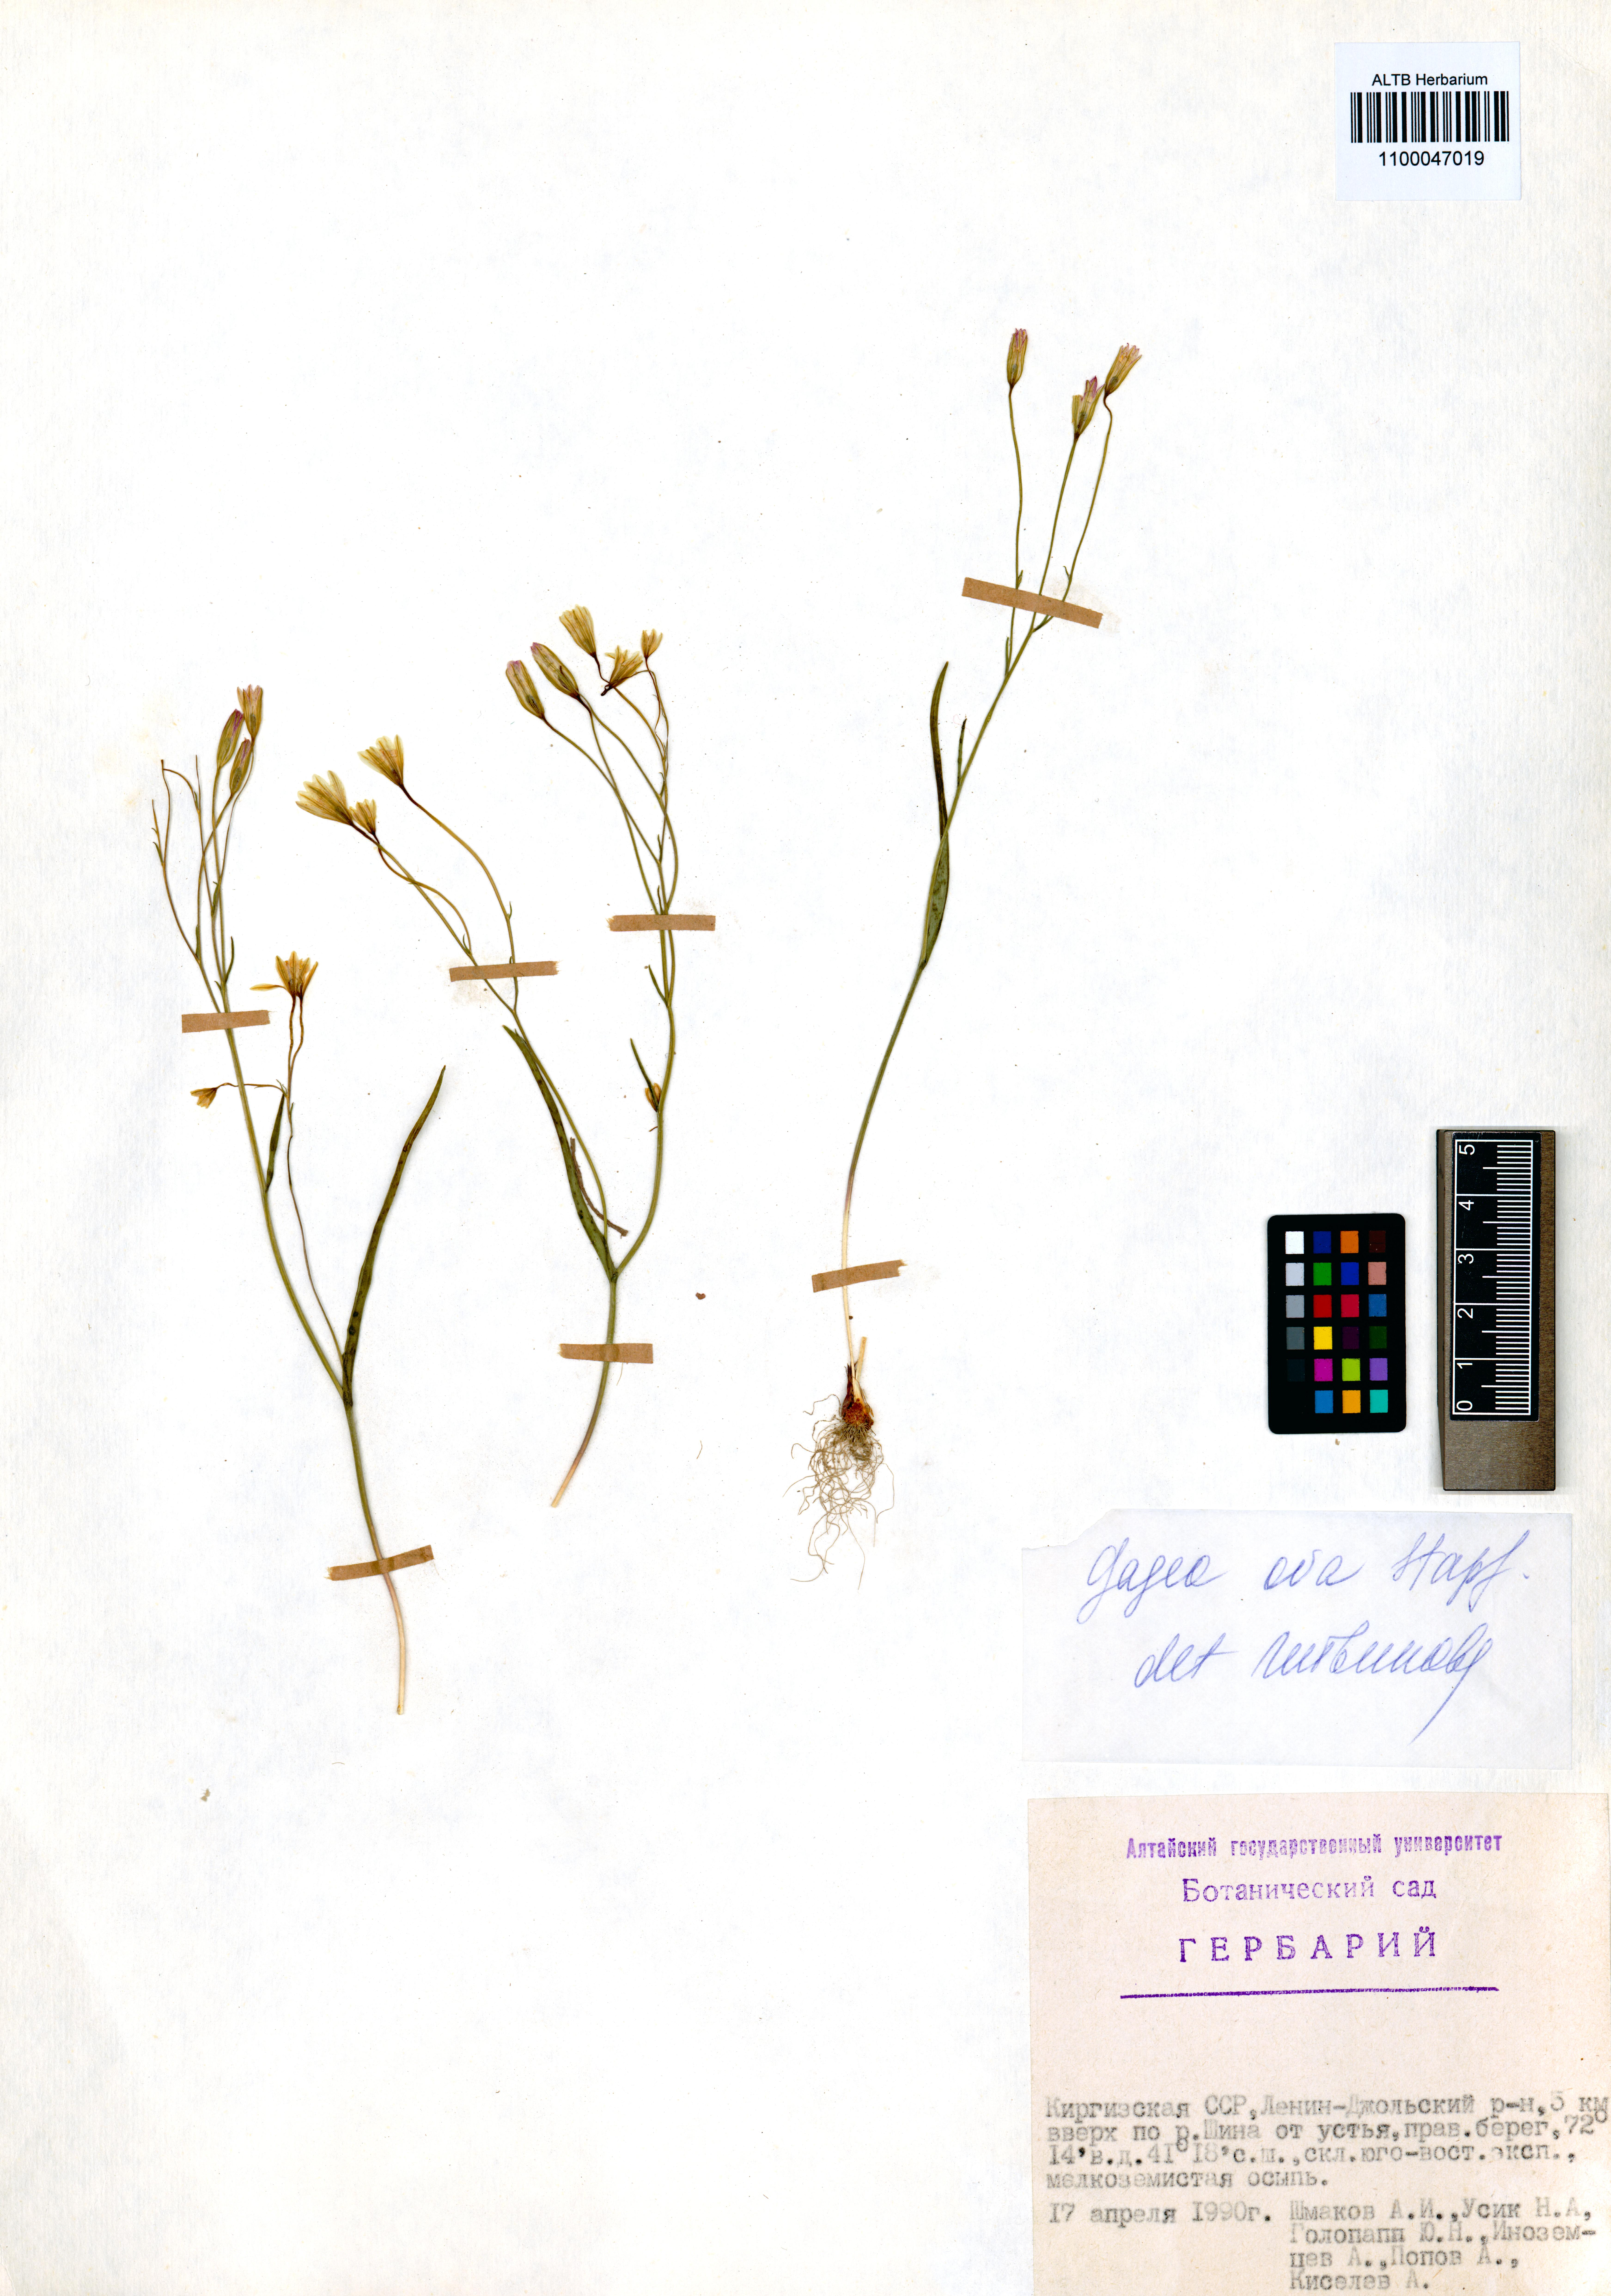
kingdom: Plantae
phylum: Tracheophyta
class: Liliopsida
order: Liliales
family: Liliaceae
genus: Gagea
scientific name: Gagea kunawurensis
